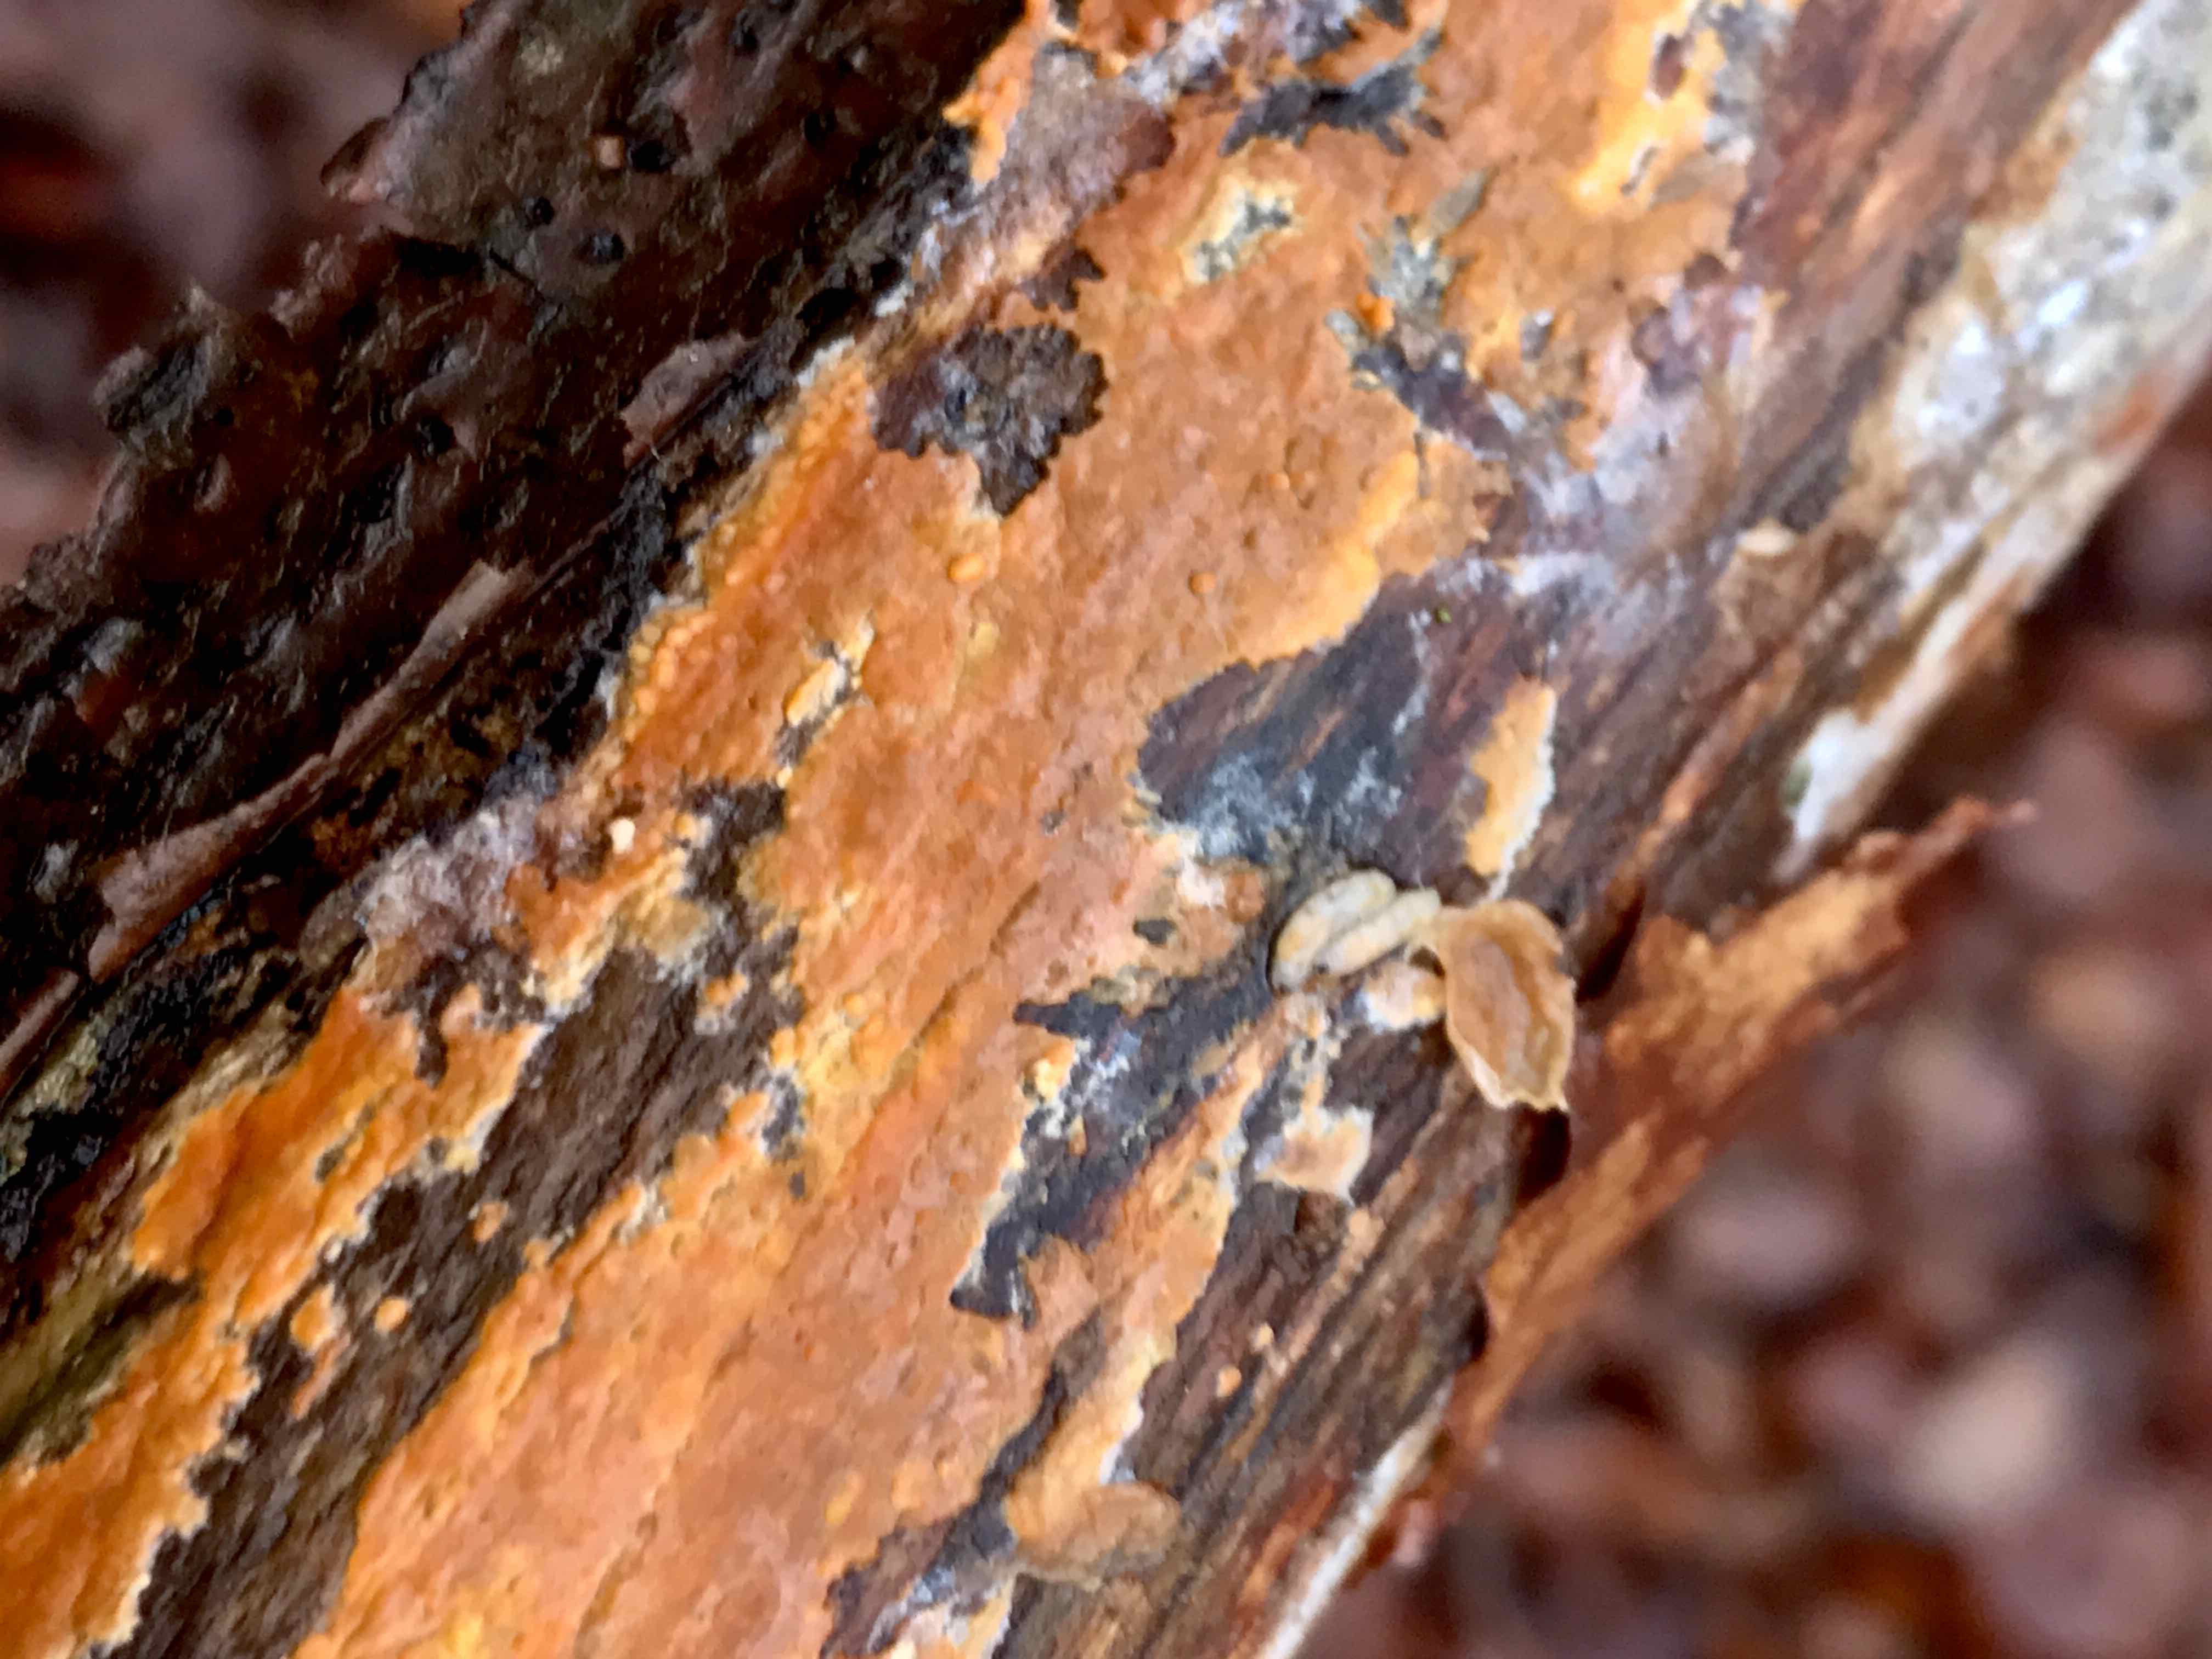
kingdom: Fungi
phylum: Basidiomycota
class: Agaricomycetes
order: Russulales
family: Peniophoraceae
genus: Peniophora
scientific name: Peniophora incarnata
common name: laksefarvet voksskind
